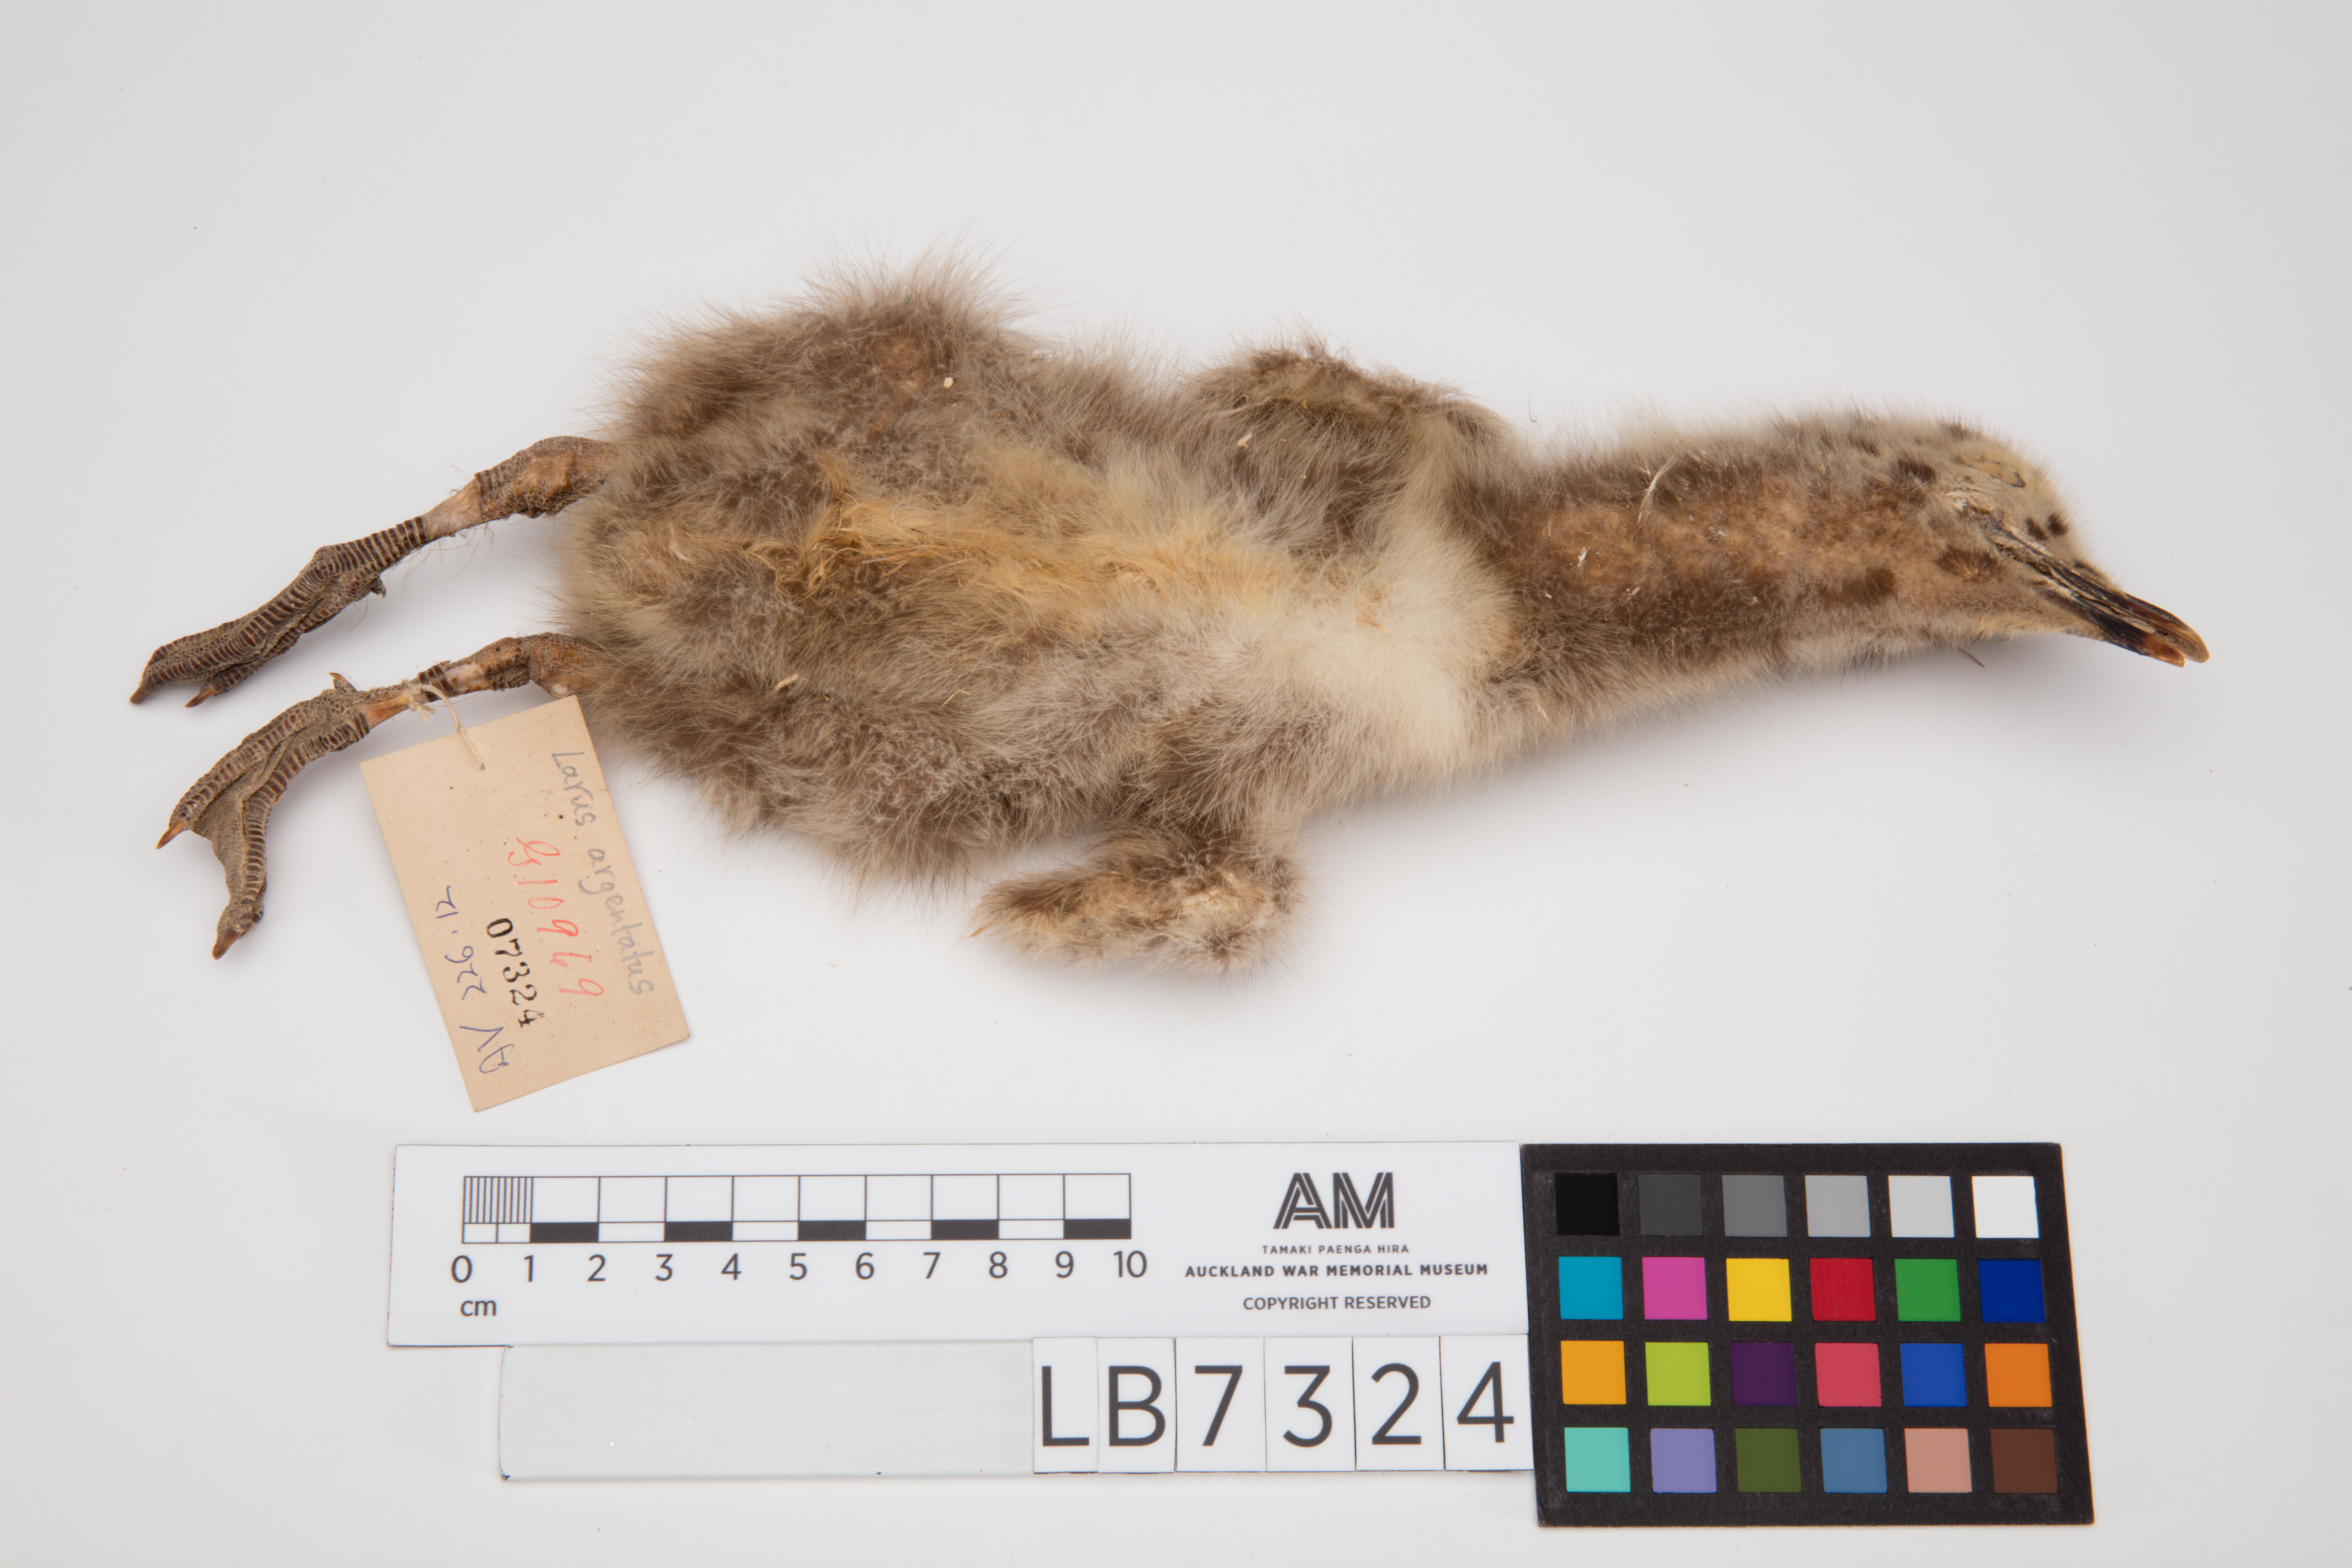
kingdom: Animalia
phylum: Chordata
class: Aves
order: Charadriiformes
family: Laridae
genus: Larus
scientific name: Larus argentatus
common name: Herring gull
